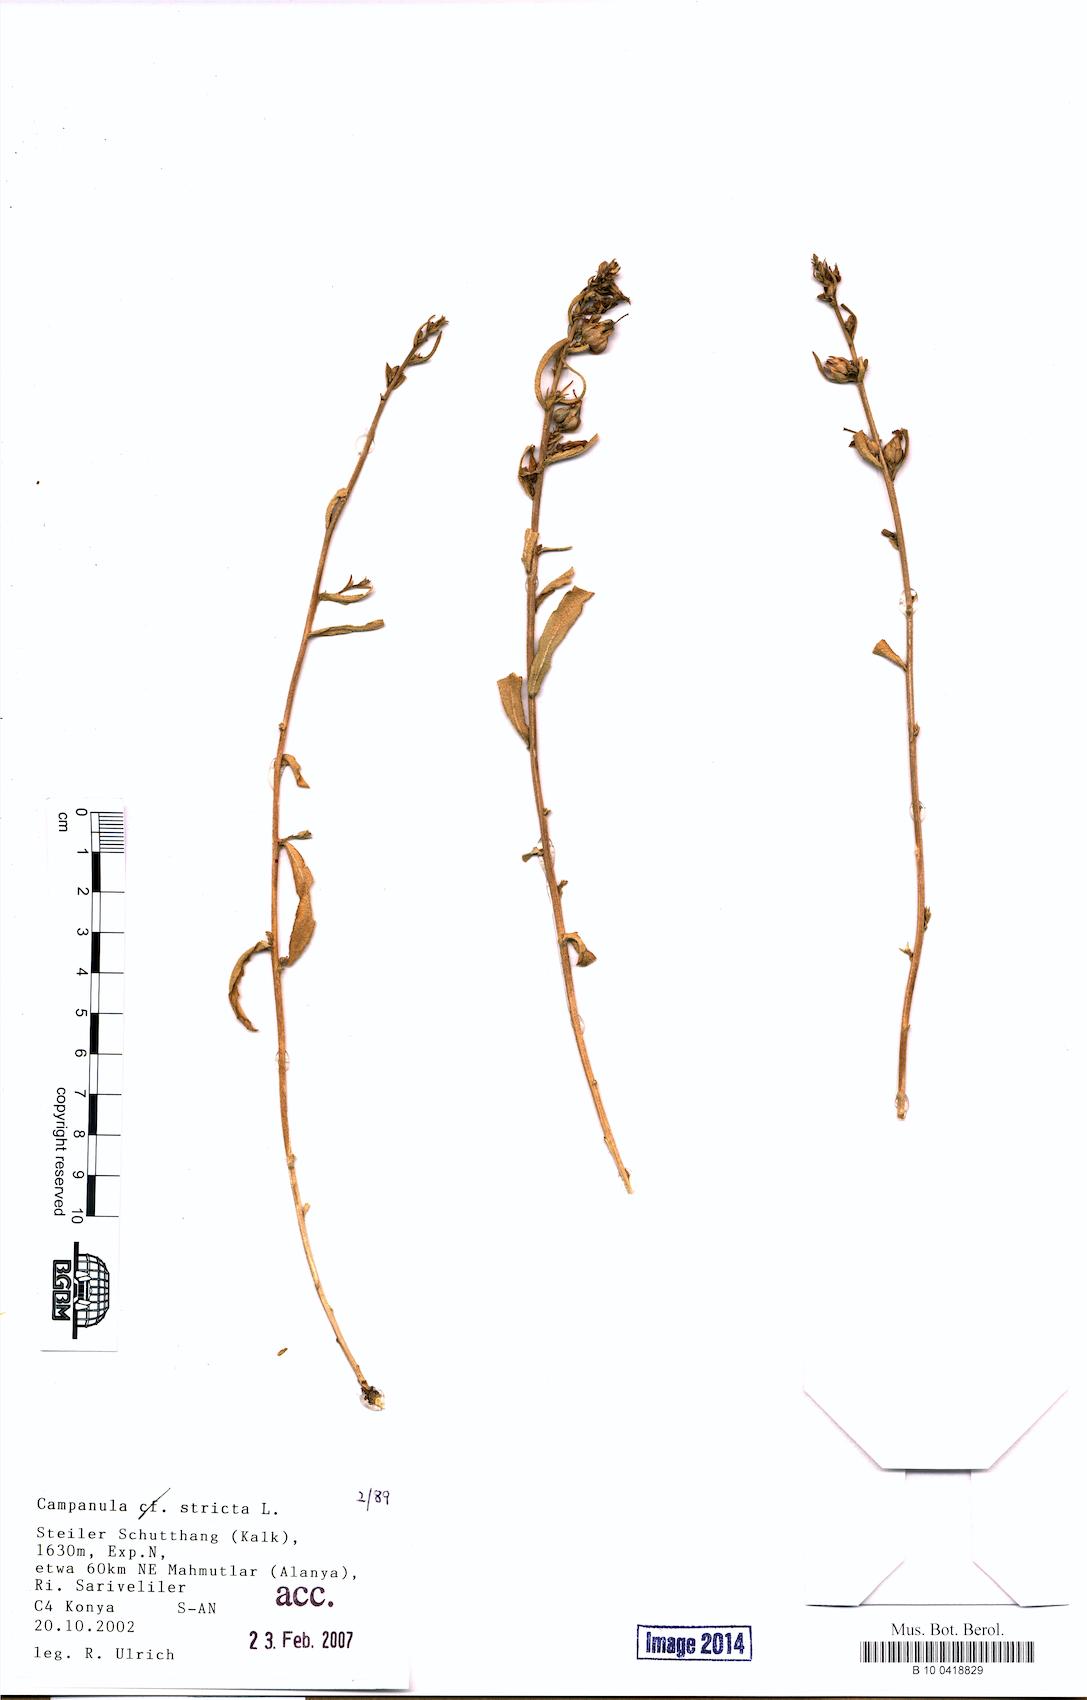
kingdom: Plantae
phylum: Tracheophyta
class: Magnoliopsida
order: Asterales
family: Campanulaceae
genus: Campanula
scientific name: Campanula stricta
